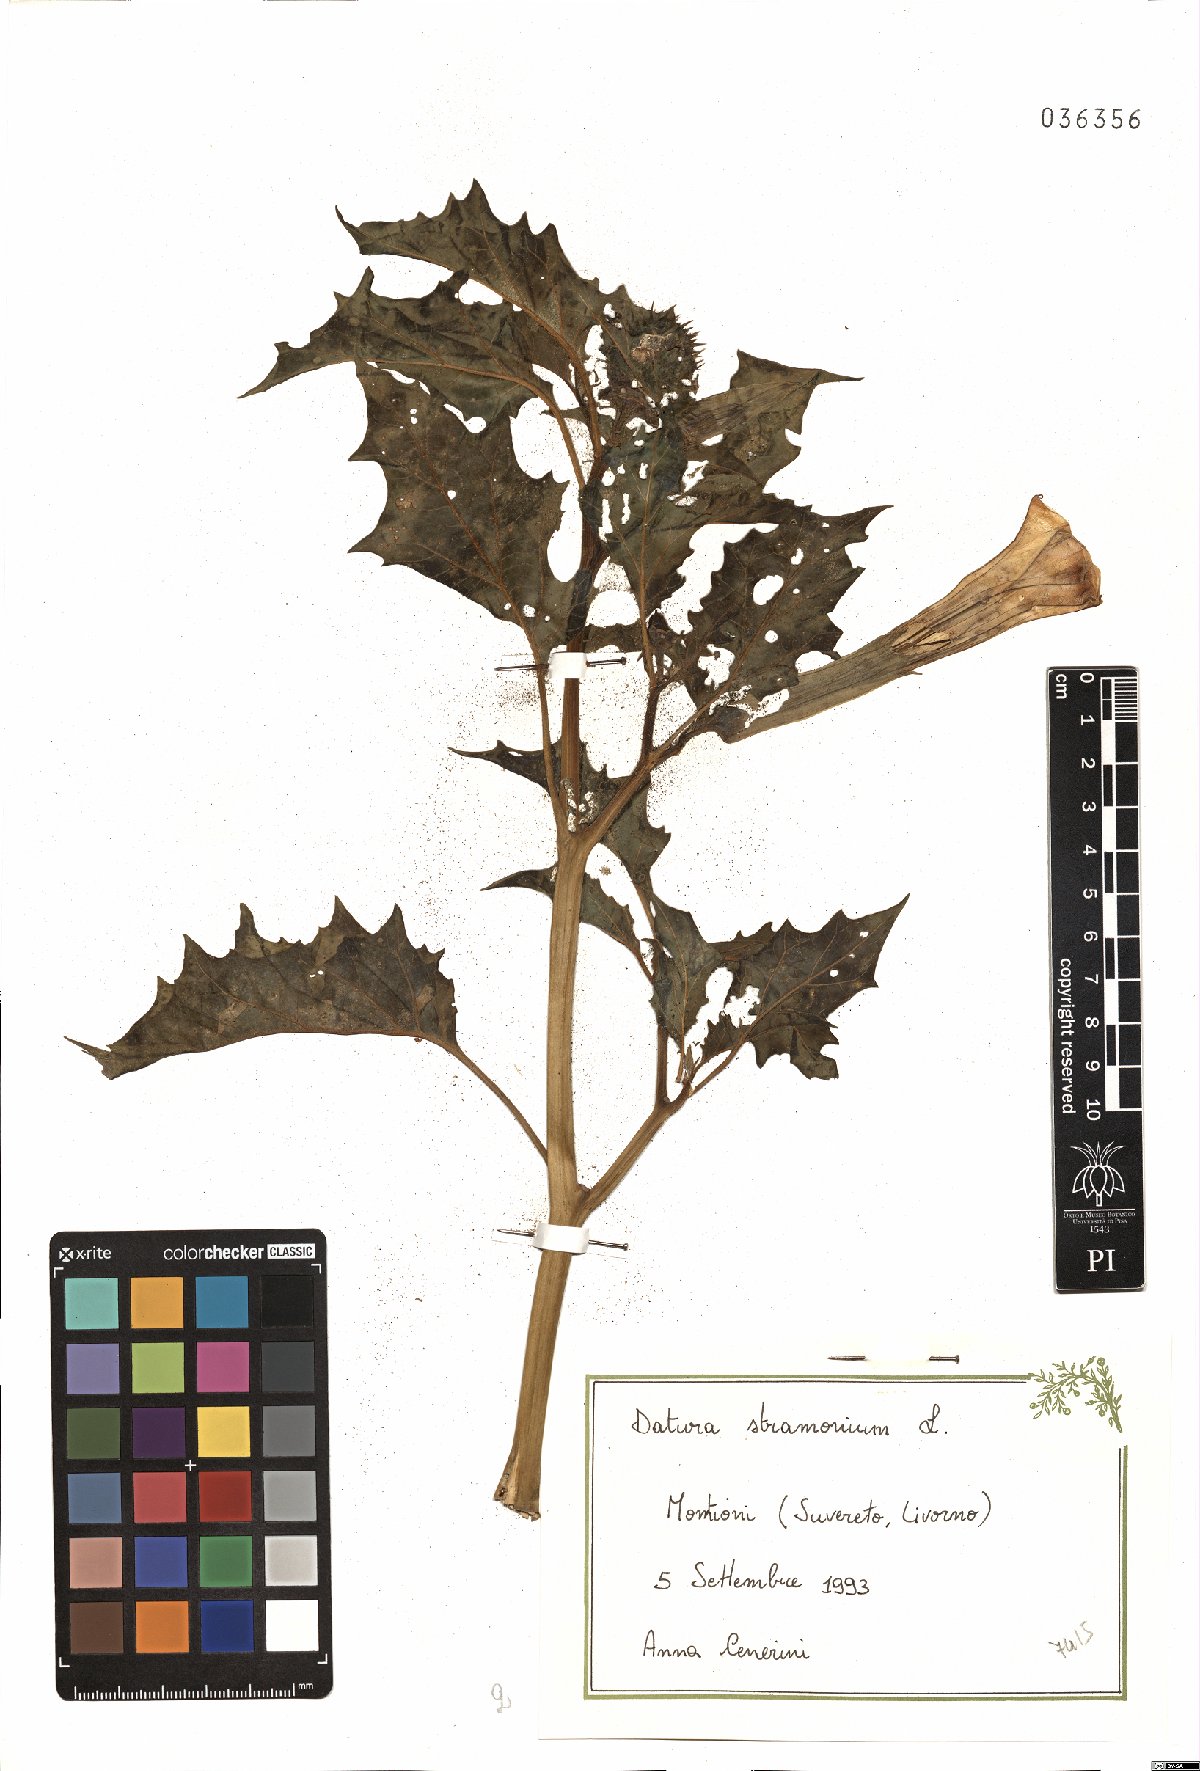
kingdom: Plantae
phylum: Tracheophyta
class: Magnoliopsida
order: Solanales
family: Solanaceae
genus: Datura
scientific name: Datura stramonium
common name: Thorn-apple
